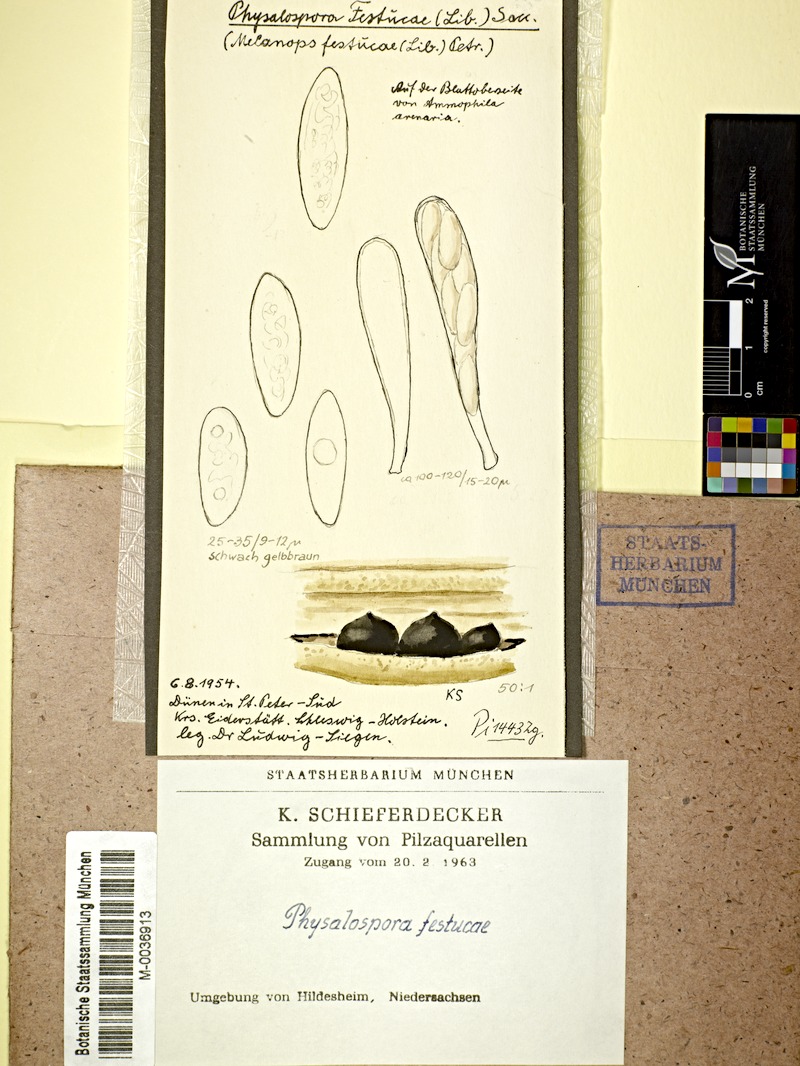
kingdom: Fungi
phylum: Ascomycota
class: Dothideomycetes
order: Botryosphaeriales
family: Botryosphaeriaceae
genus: Botryosphaeria
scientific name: Botryosphaeria festucae
